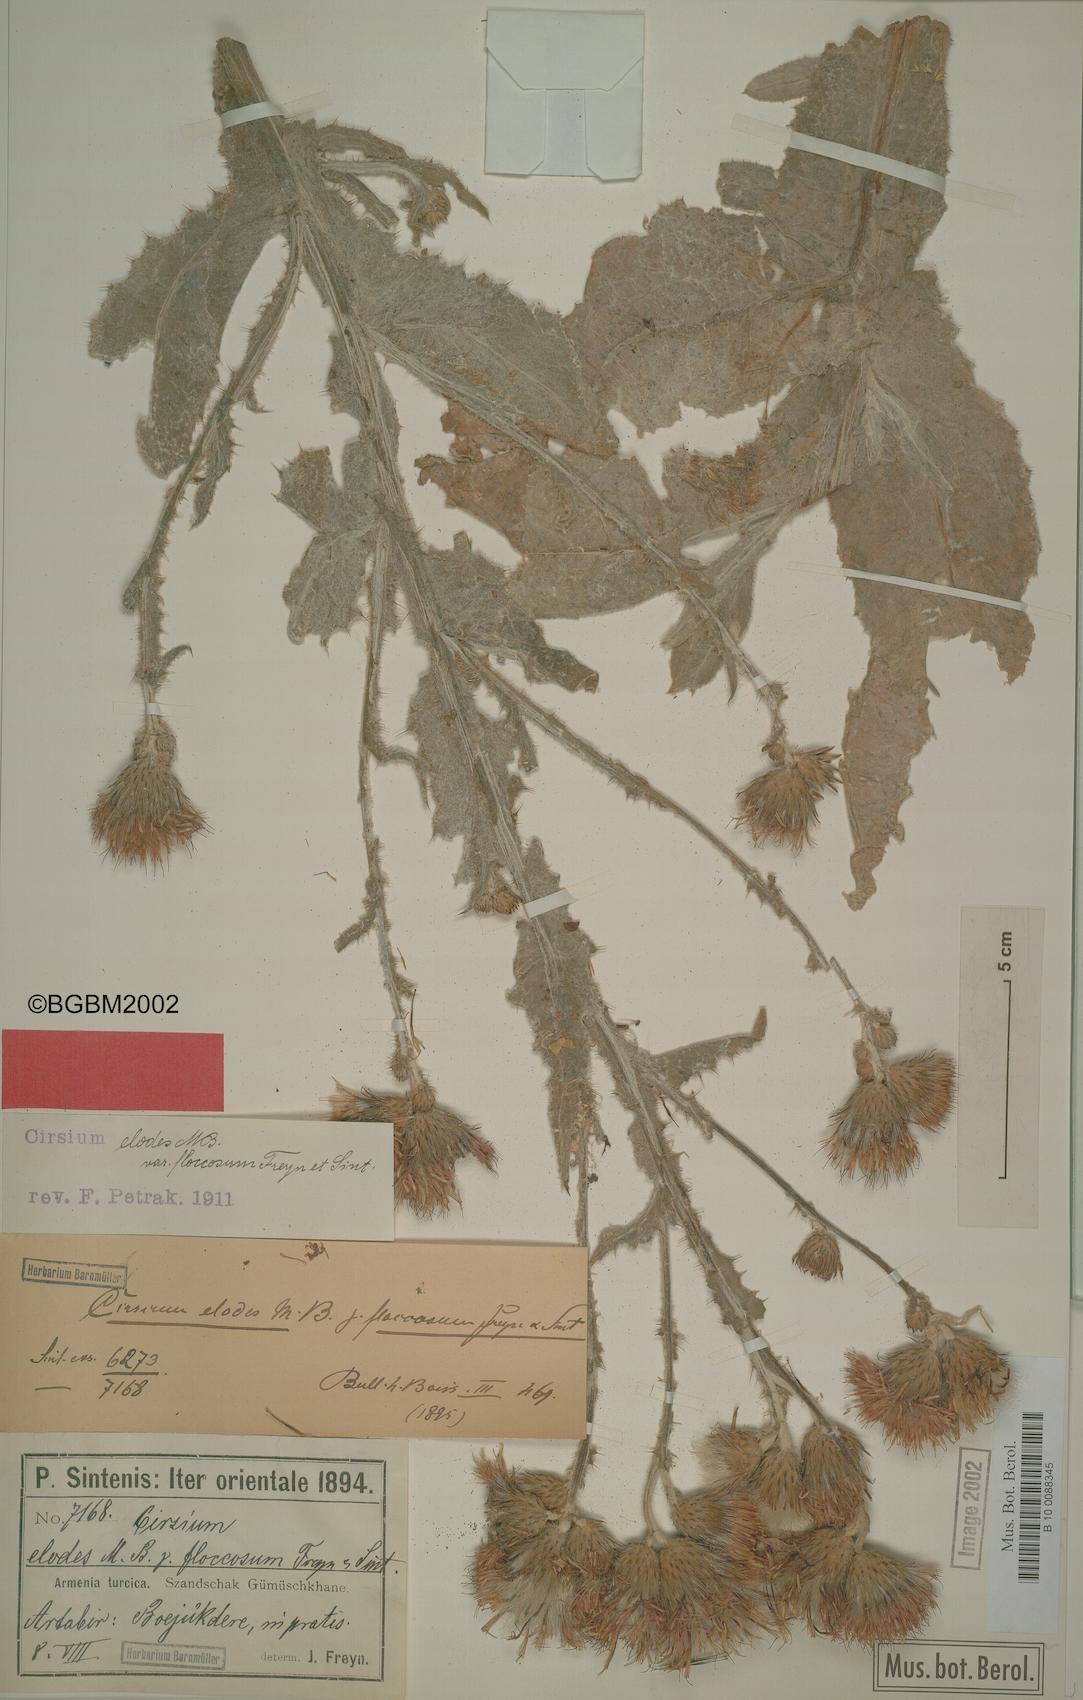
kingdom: Plantae
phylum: Tracheophyta
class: Magnoliopsida
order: Asterales
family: Asteraceae
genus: Cirsium
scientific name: Cirsium alatum
